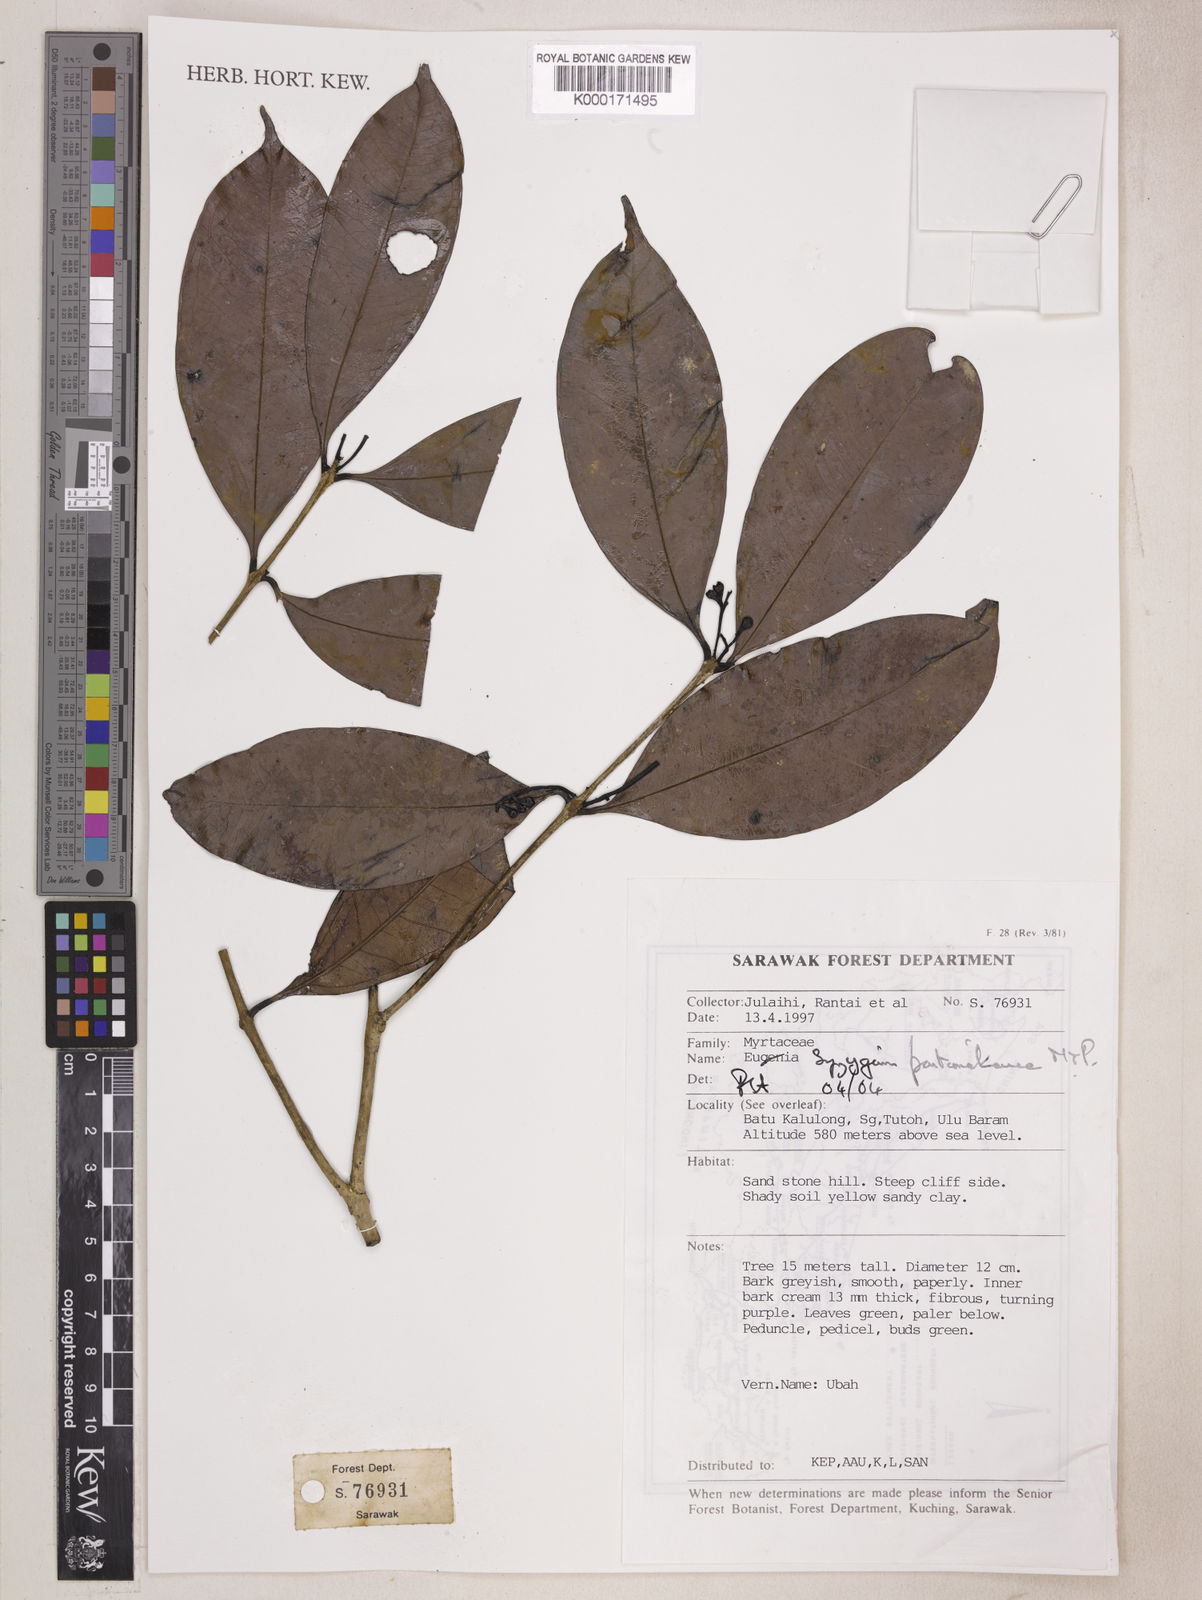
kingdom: Plantae
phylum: Tracheophyta
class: Magnoliopsida
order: Myrtales
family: Myrtaceae
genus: Syzygium
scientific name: Syzygium pontianakense
